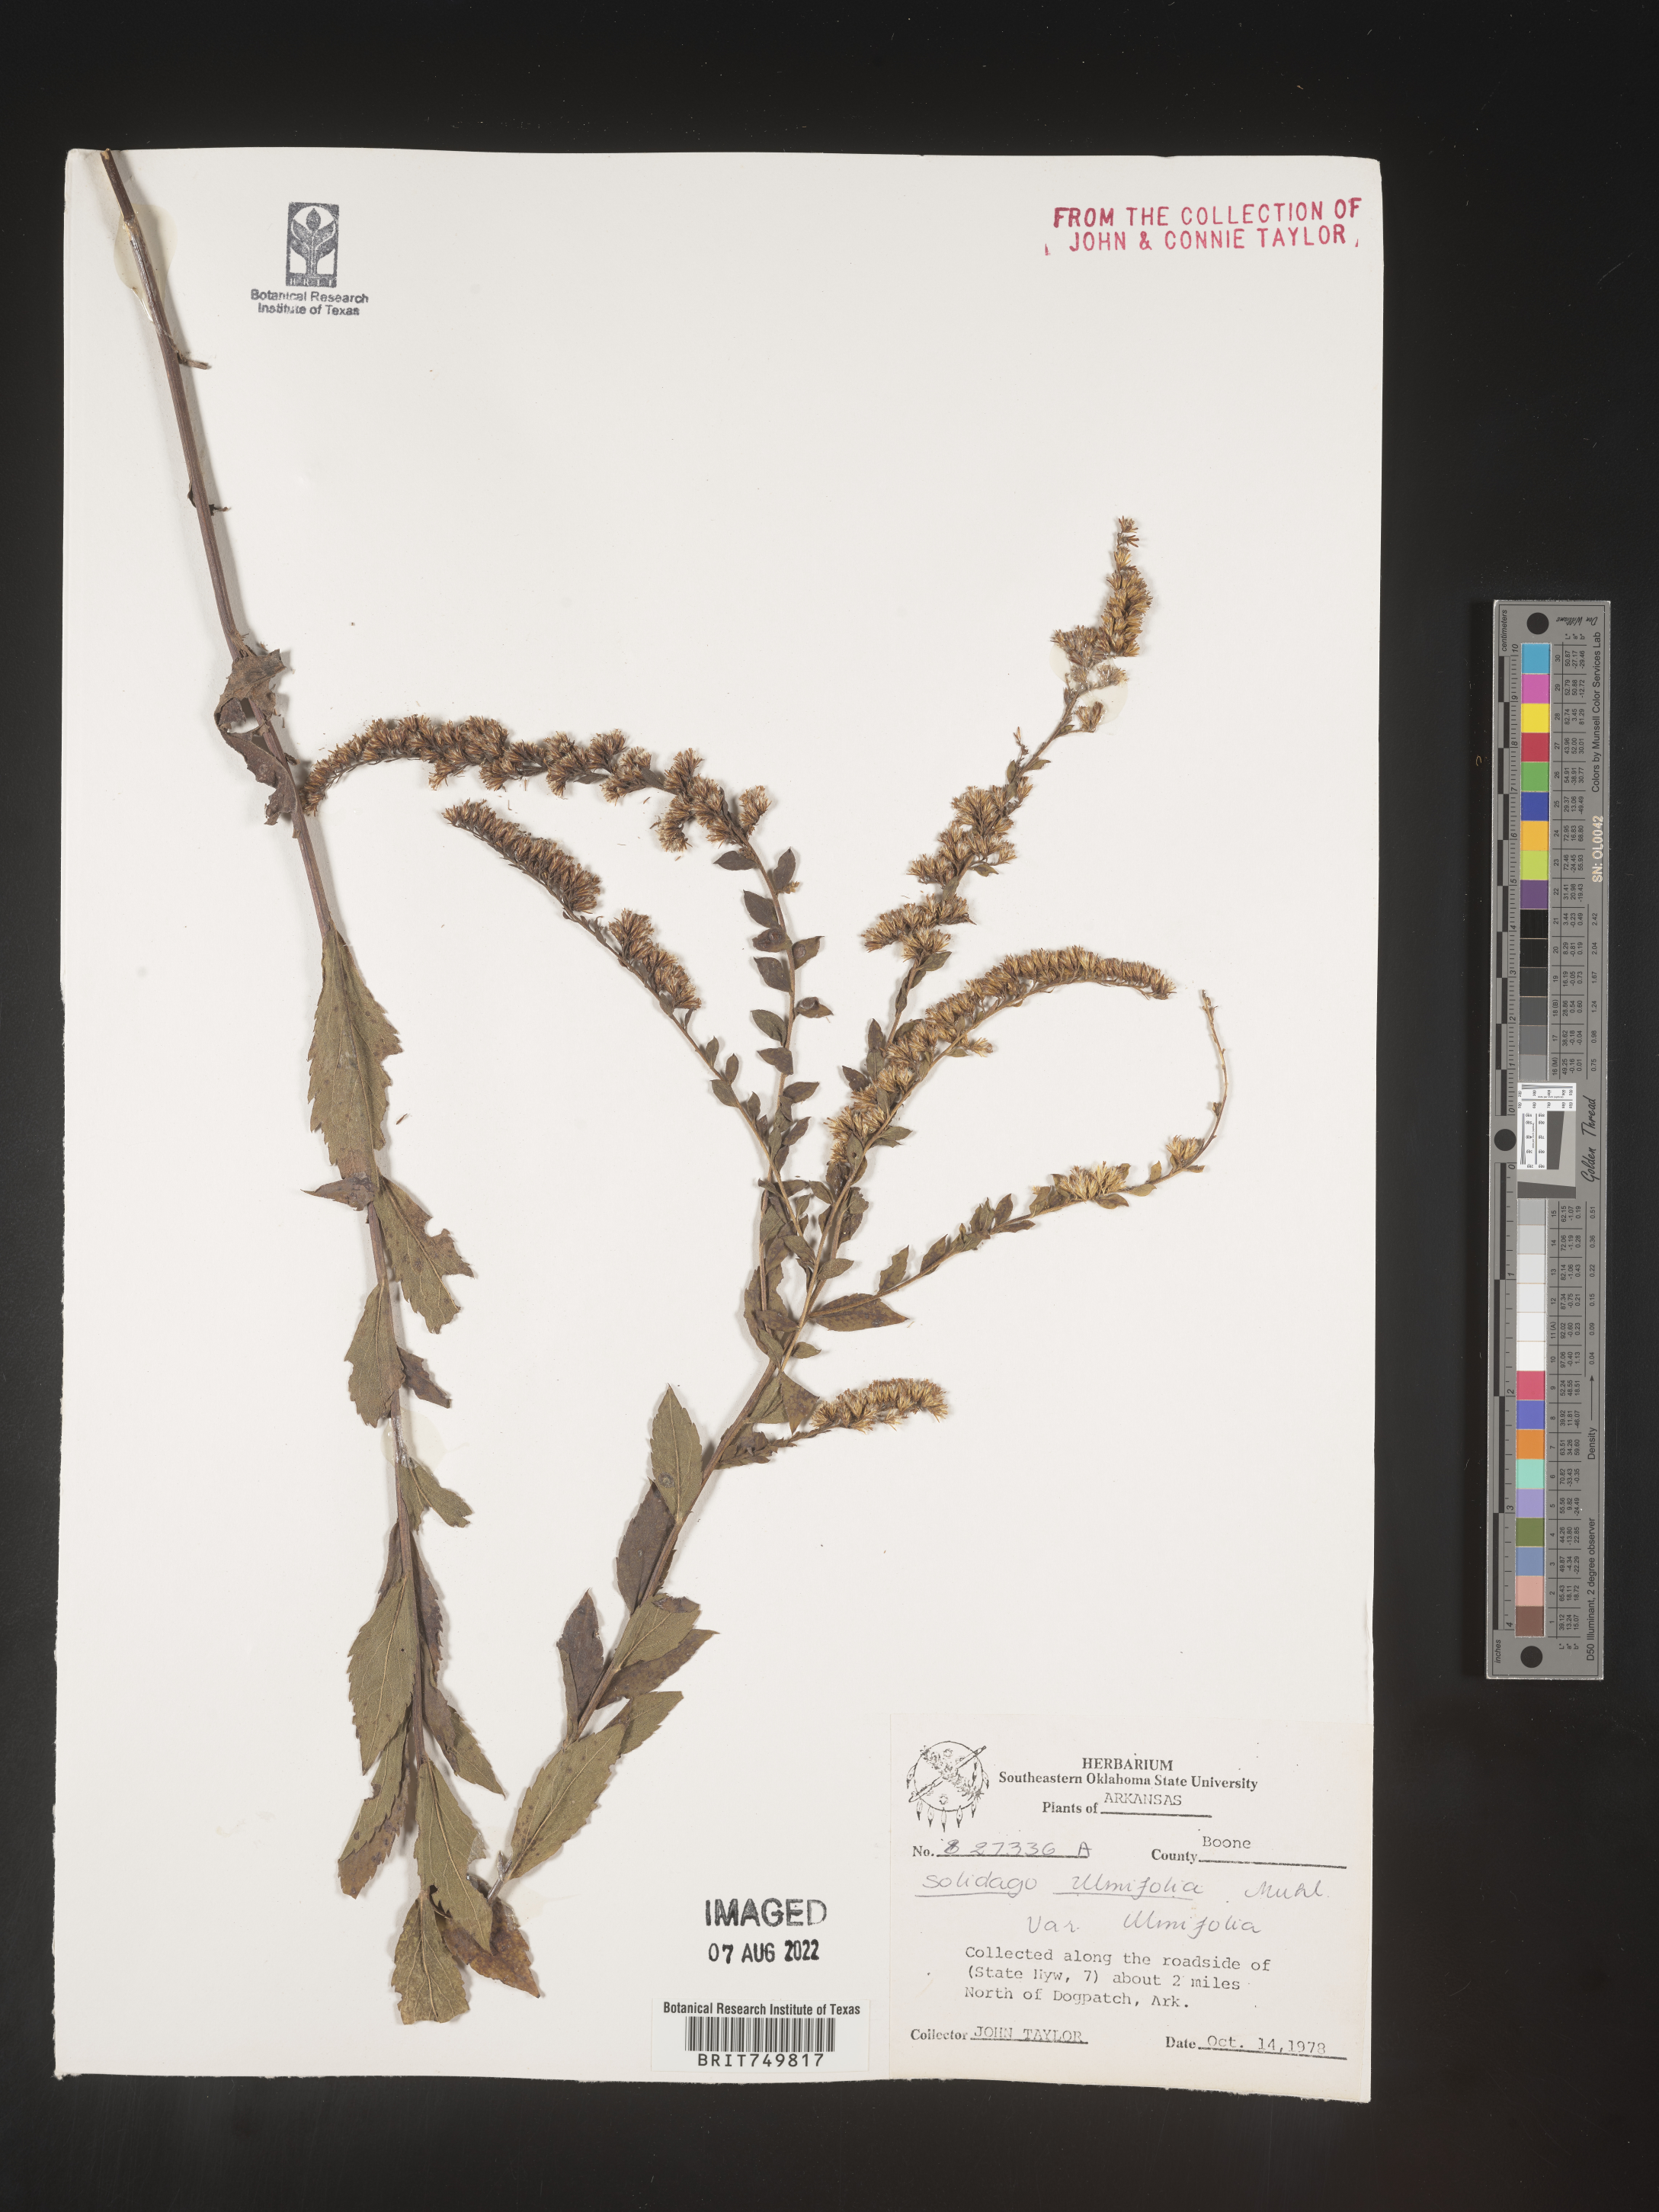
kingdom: Plantae
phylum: Tracheophyta
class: Magnoliopsida
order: Asterales
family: Asteraceae
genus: Solidago
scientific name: Solidago ulmifolia
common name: Elm-leaf goldenrod
